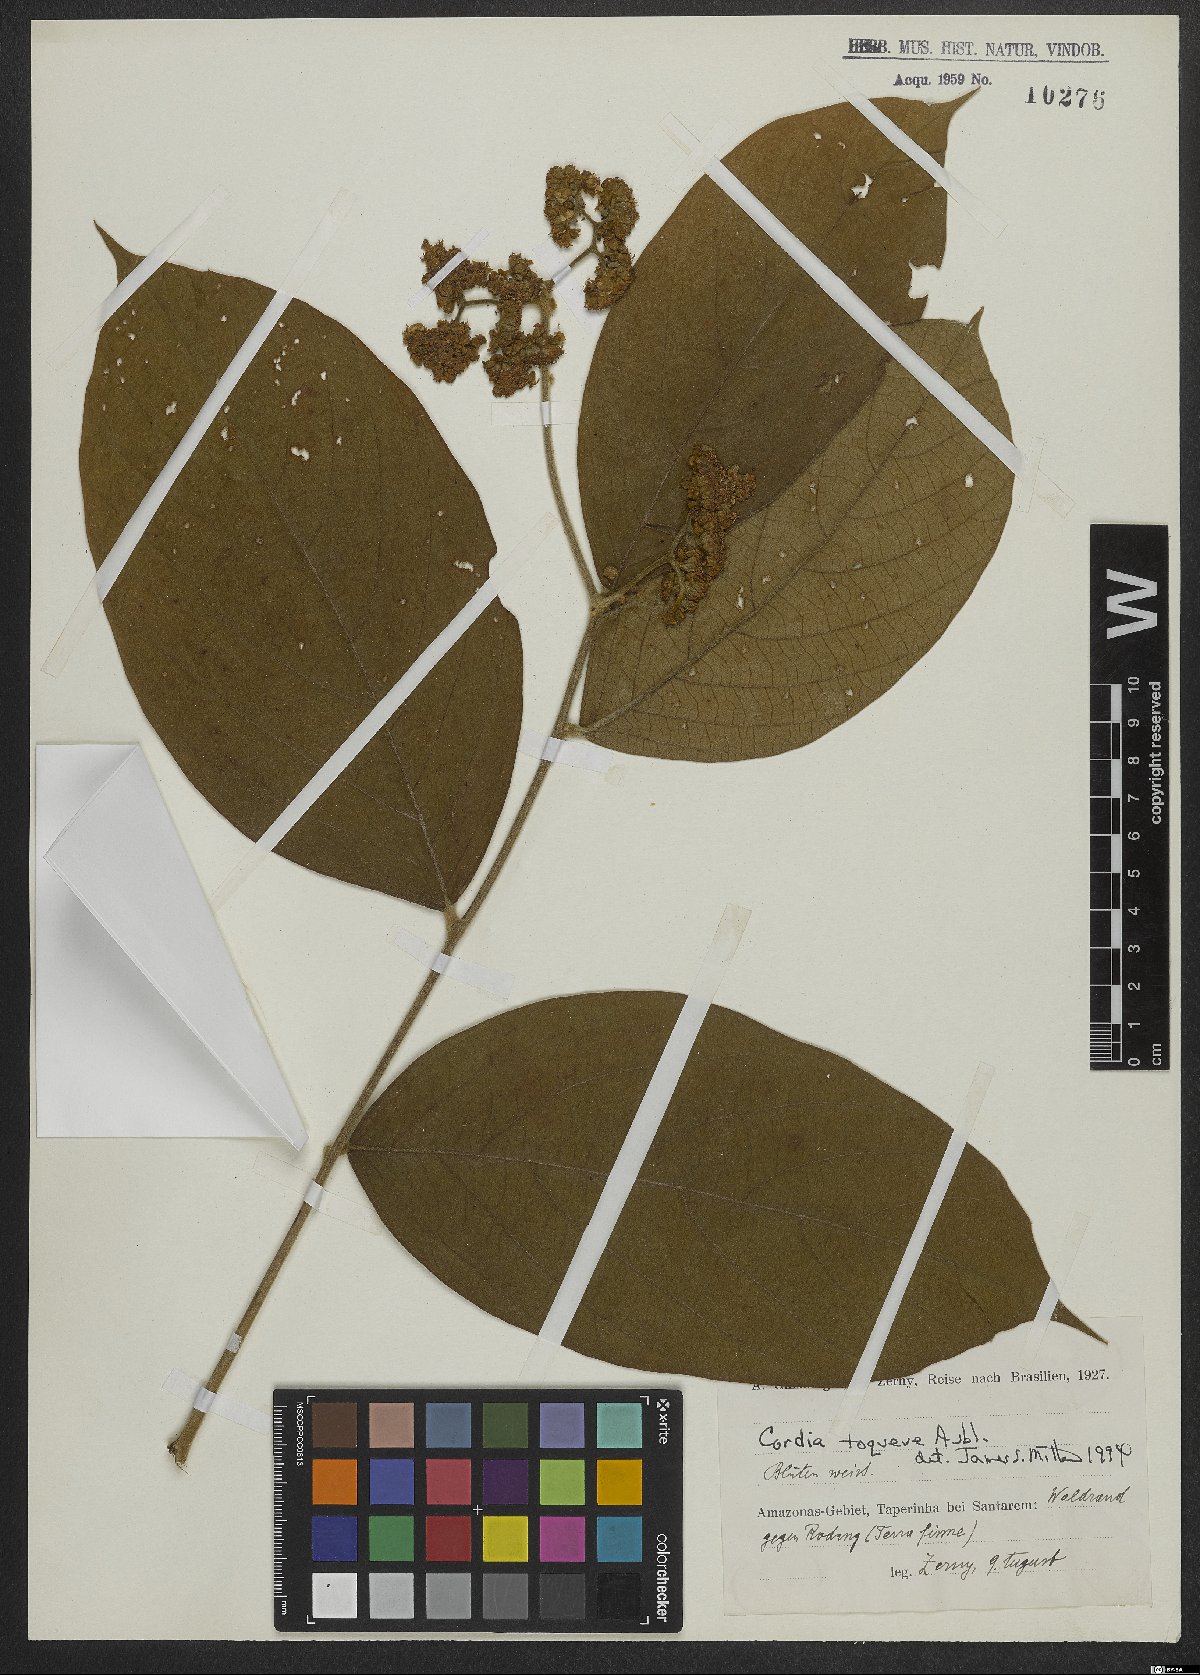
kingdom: Plantae
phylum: Tracheophyta
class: Magnoliopsida
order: Ericales
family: Primulaceae
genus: Cybianthus
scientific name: Cybianthus
